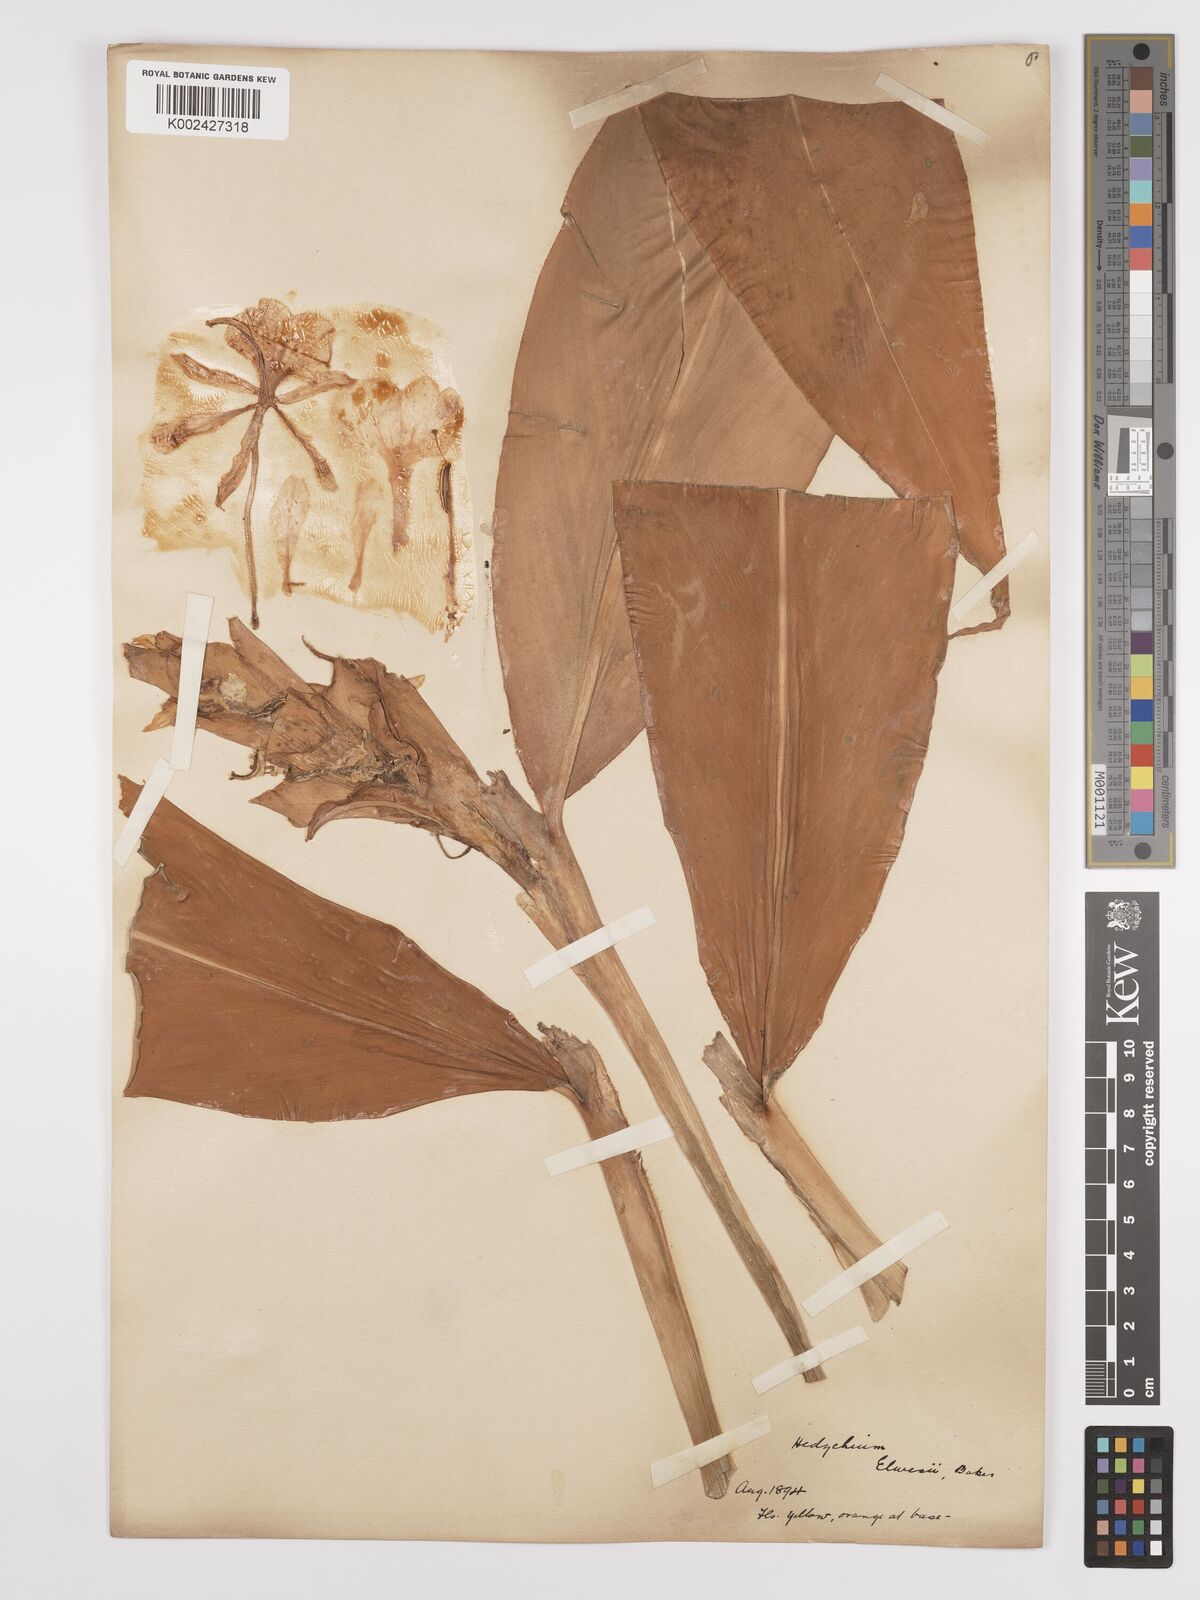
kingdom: Plantae
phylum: Tracheophyta
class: Liliopsida
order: Zingiberales
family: Zingiberaceae
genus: Hedychium
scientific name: Hedychium elwesii
